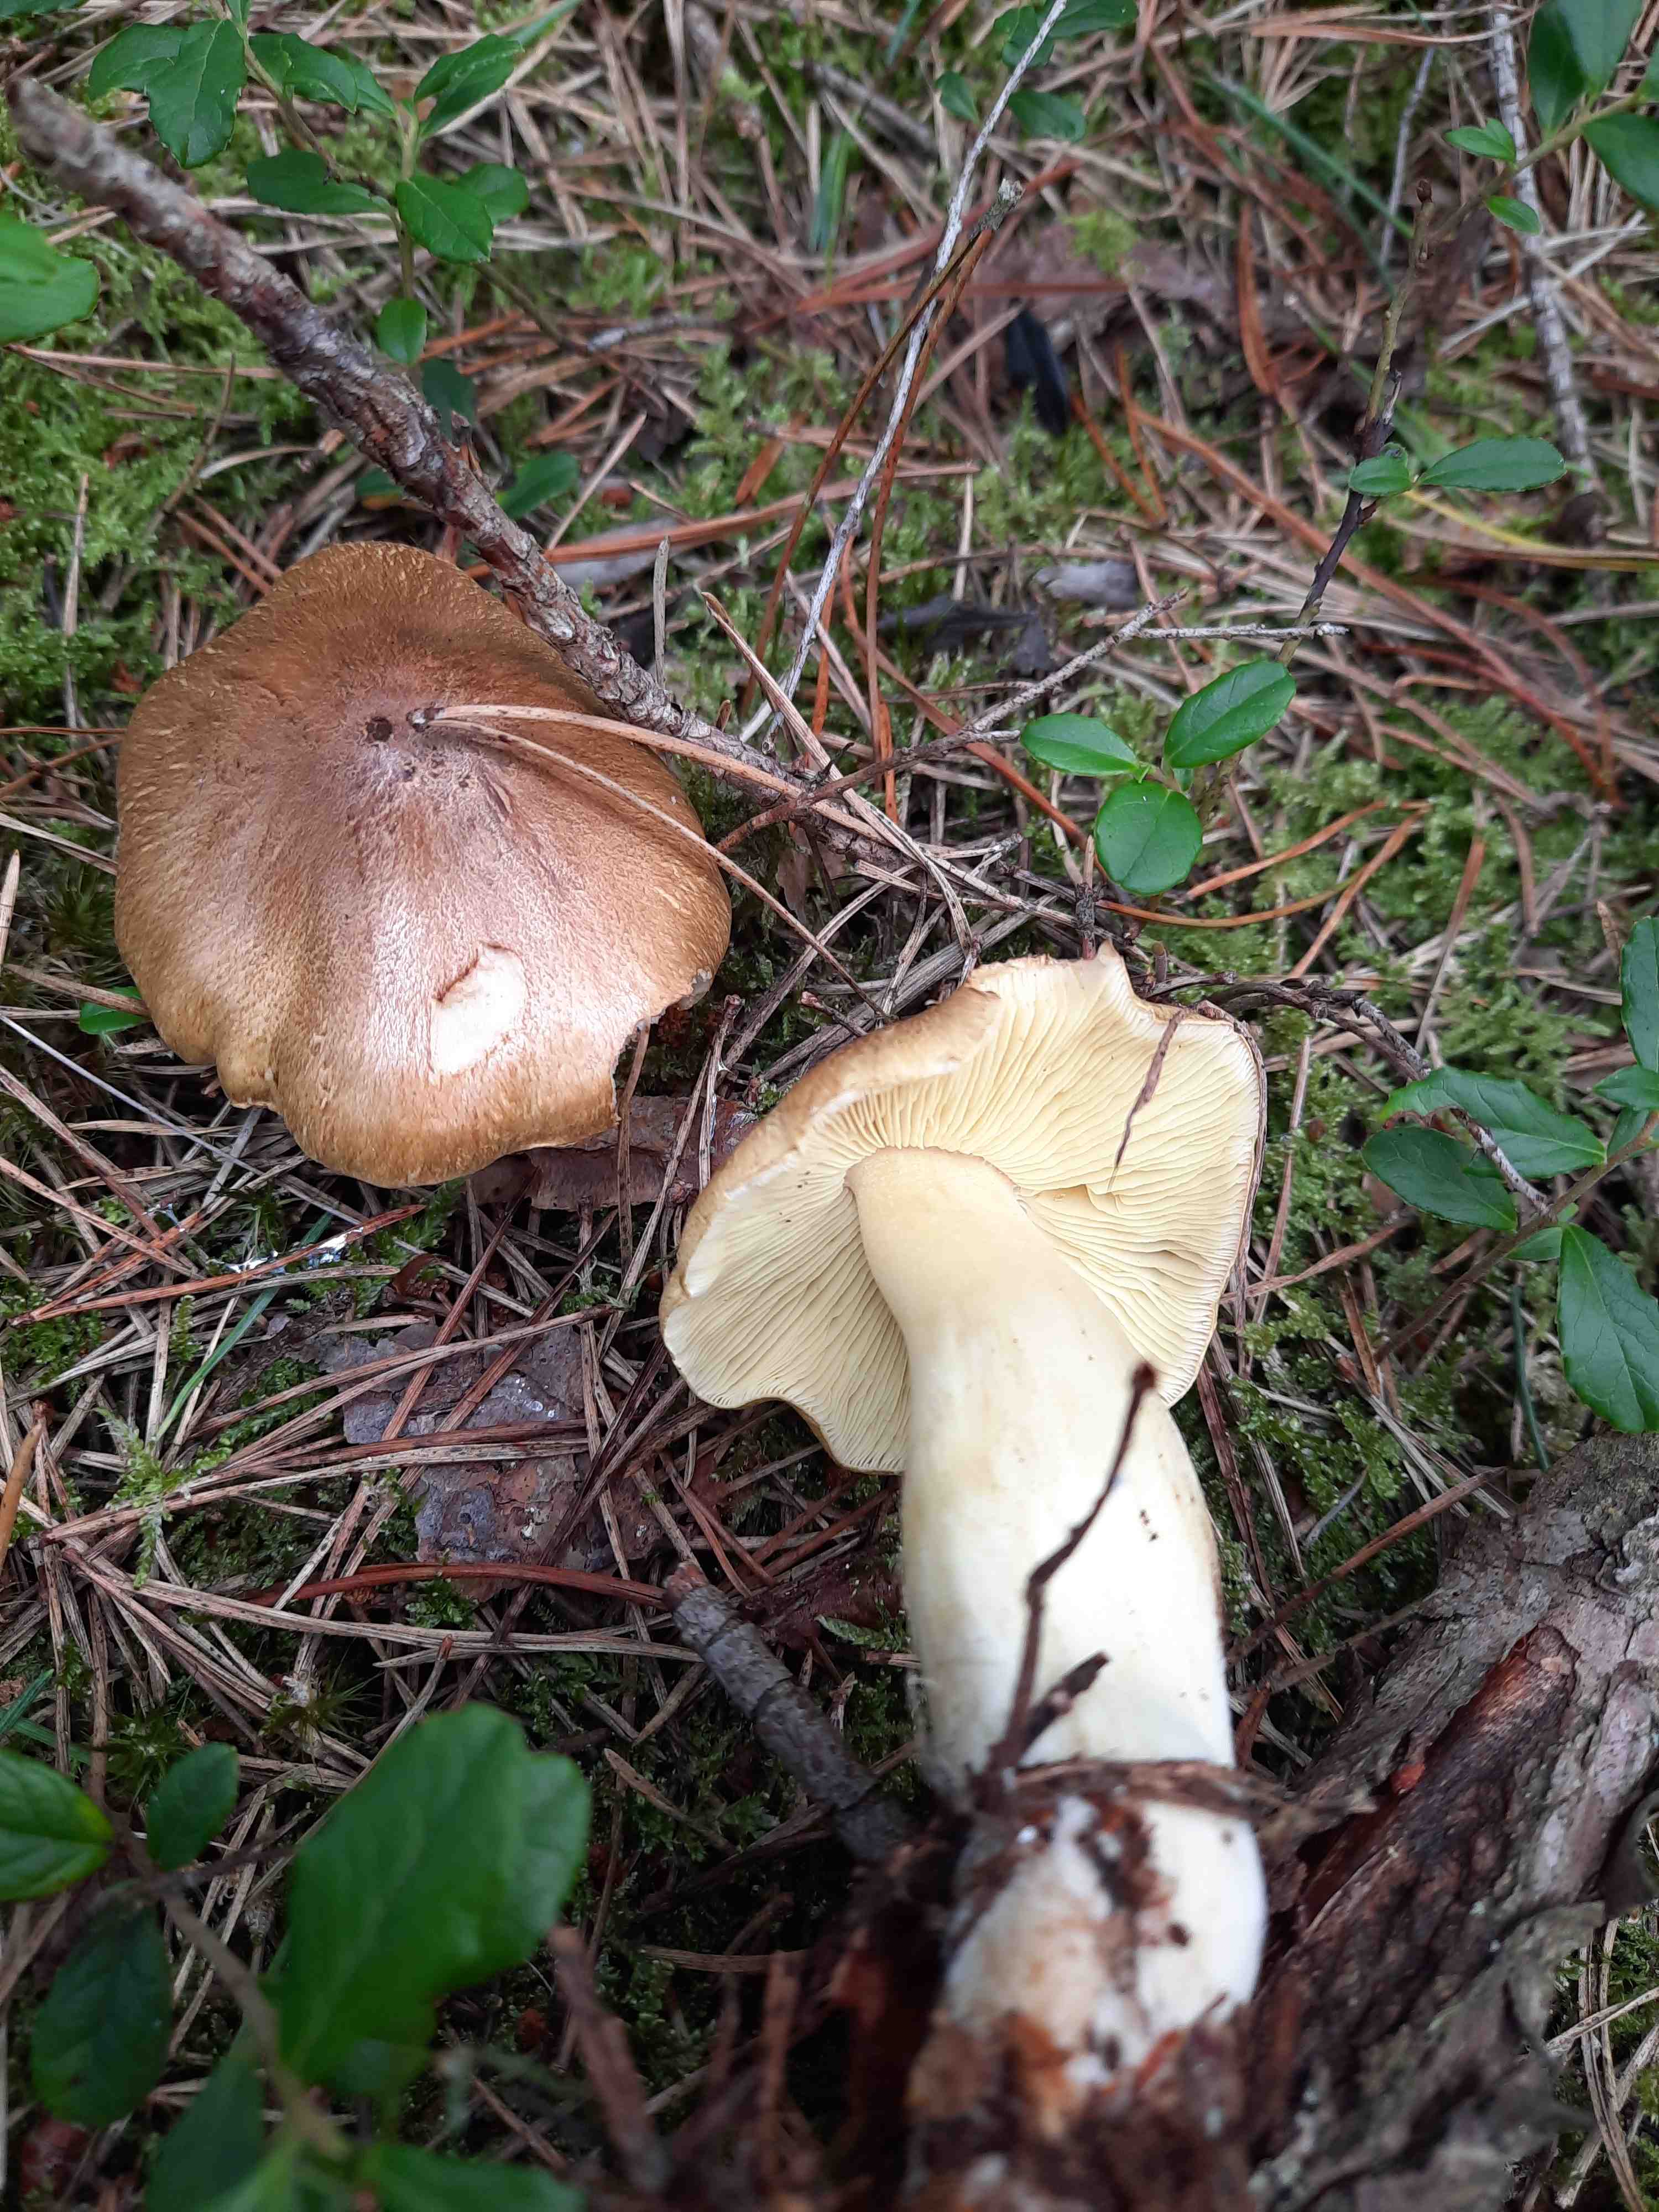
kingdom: Fungi
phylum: Basidiomycota
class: Agaricomycetes
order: Agaricales
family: Tricholomataceae
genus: Tricholoma
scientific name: Tricholoma aestuans
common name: kegle-ridderhat
